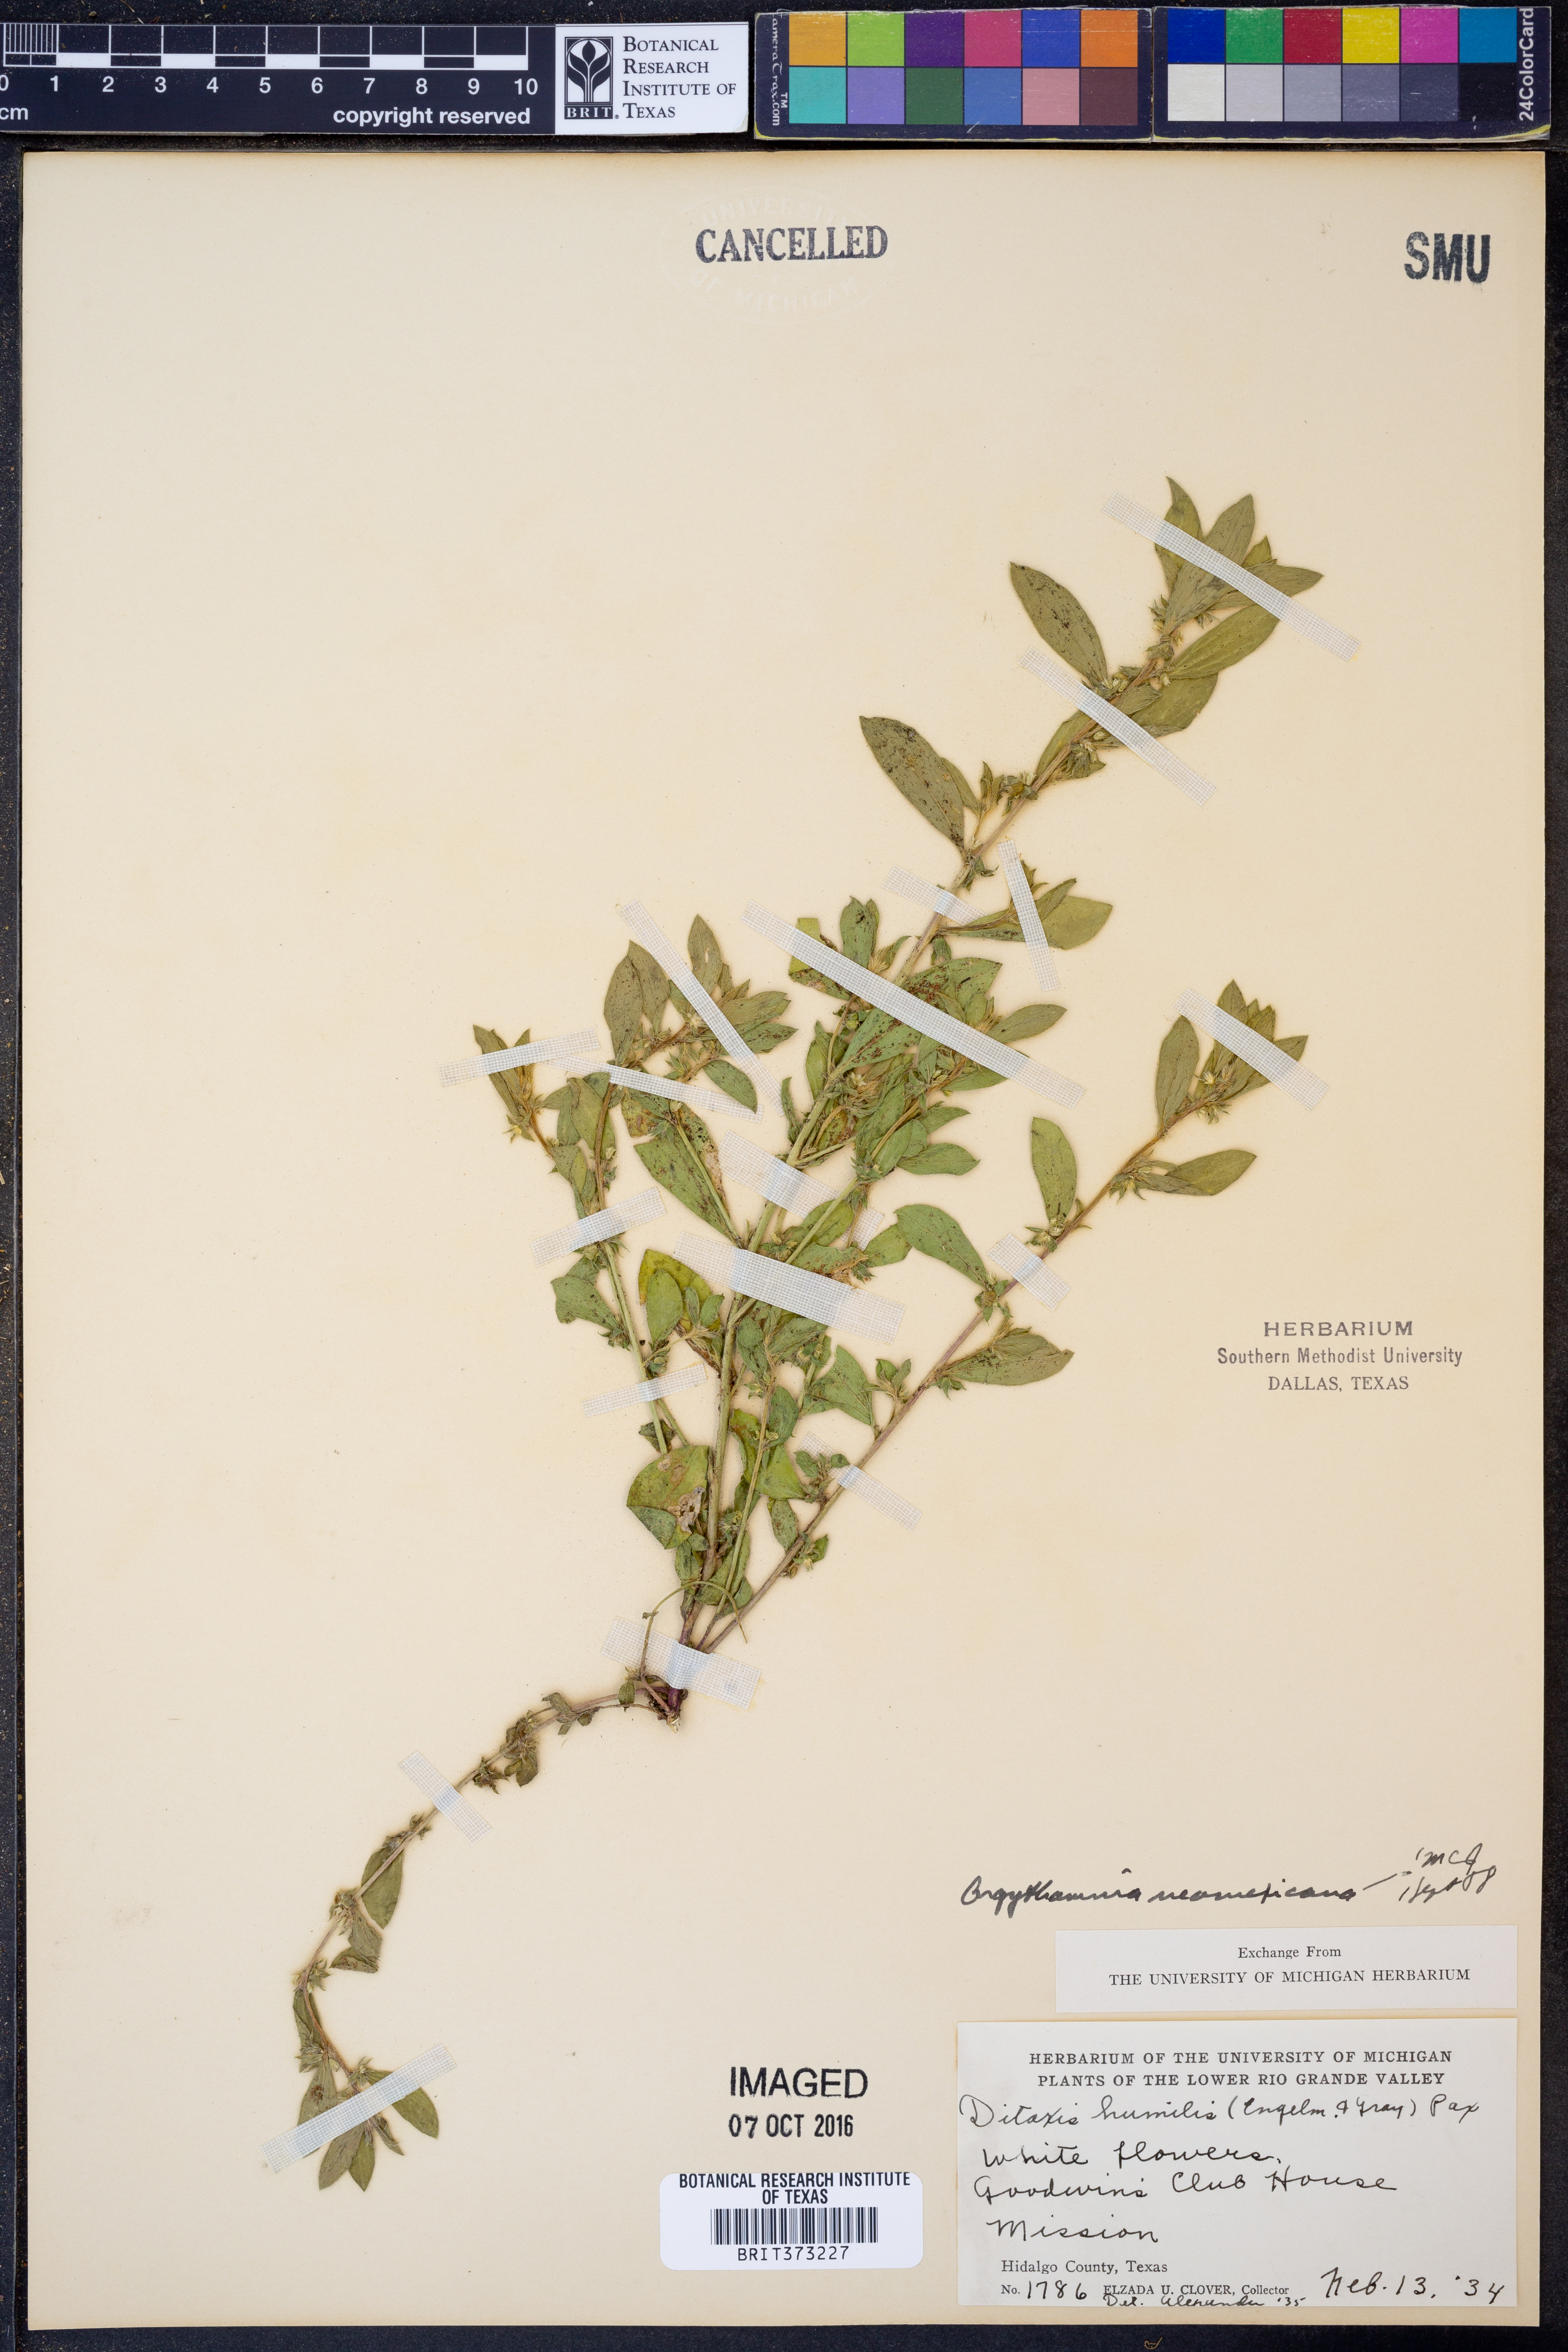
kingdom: Plantae
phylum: Tracheophyta
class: Magnoliopsida
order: Malpighiales
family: Euphorbiaceae
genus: Ditaxis
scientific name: Ditaxis serrata
